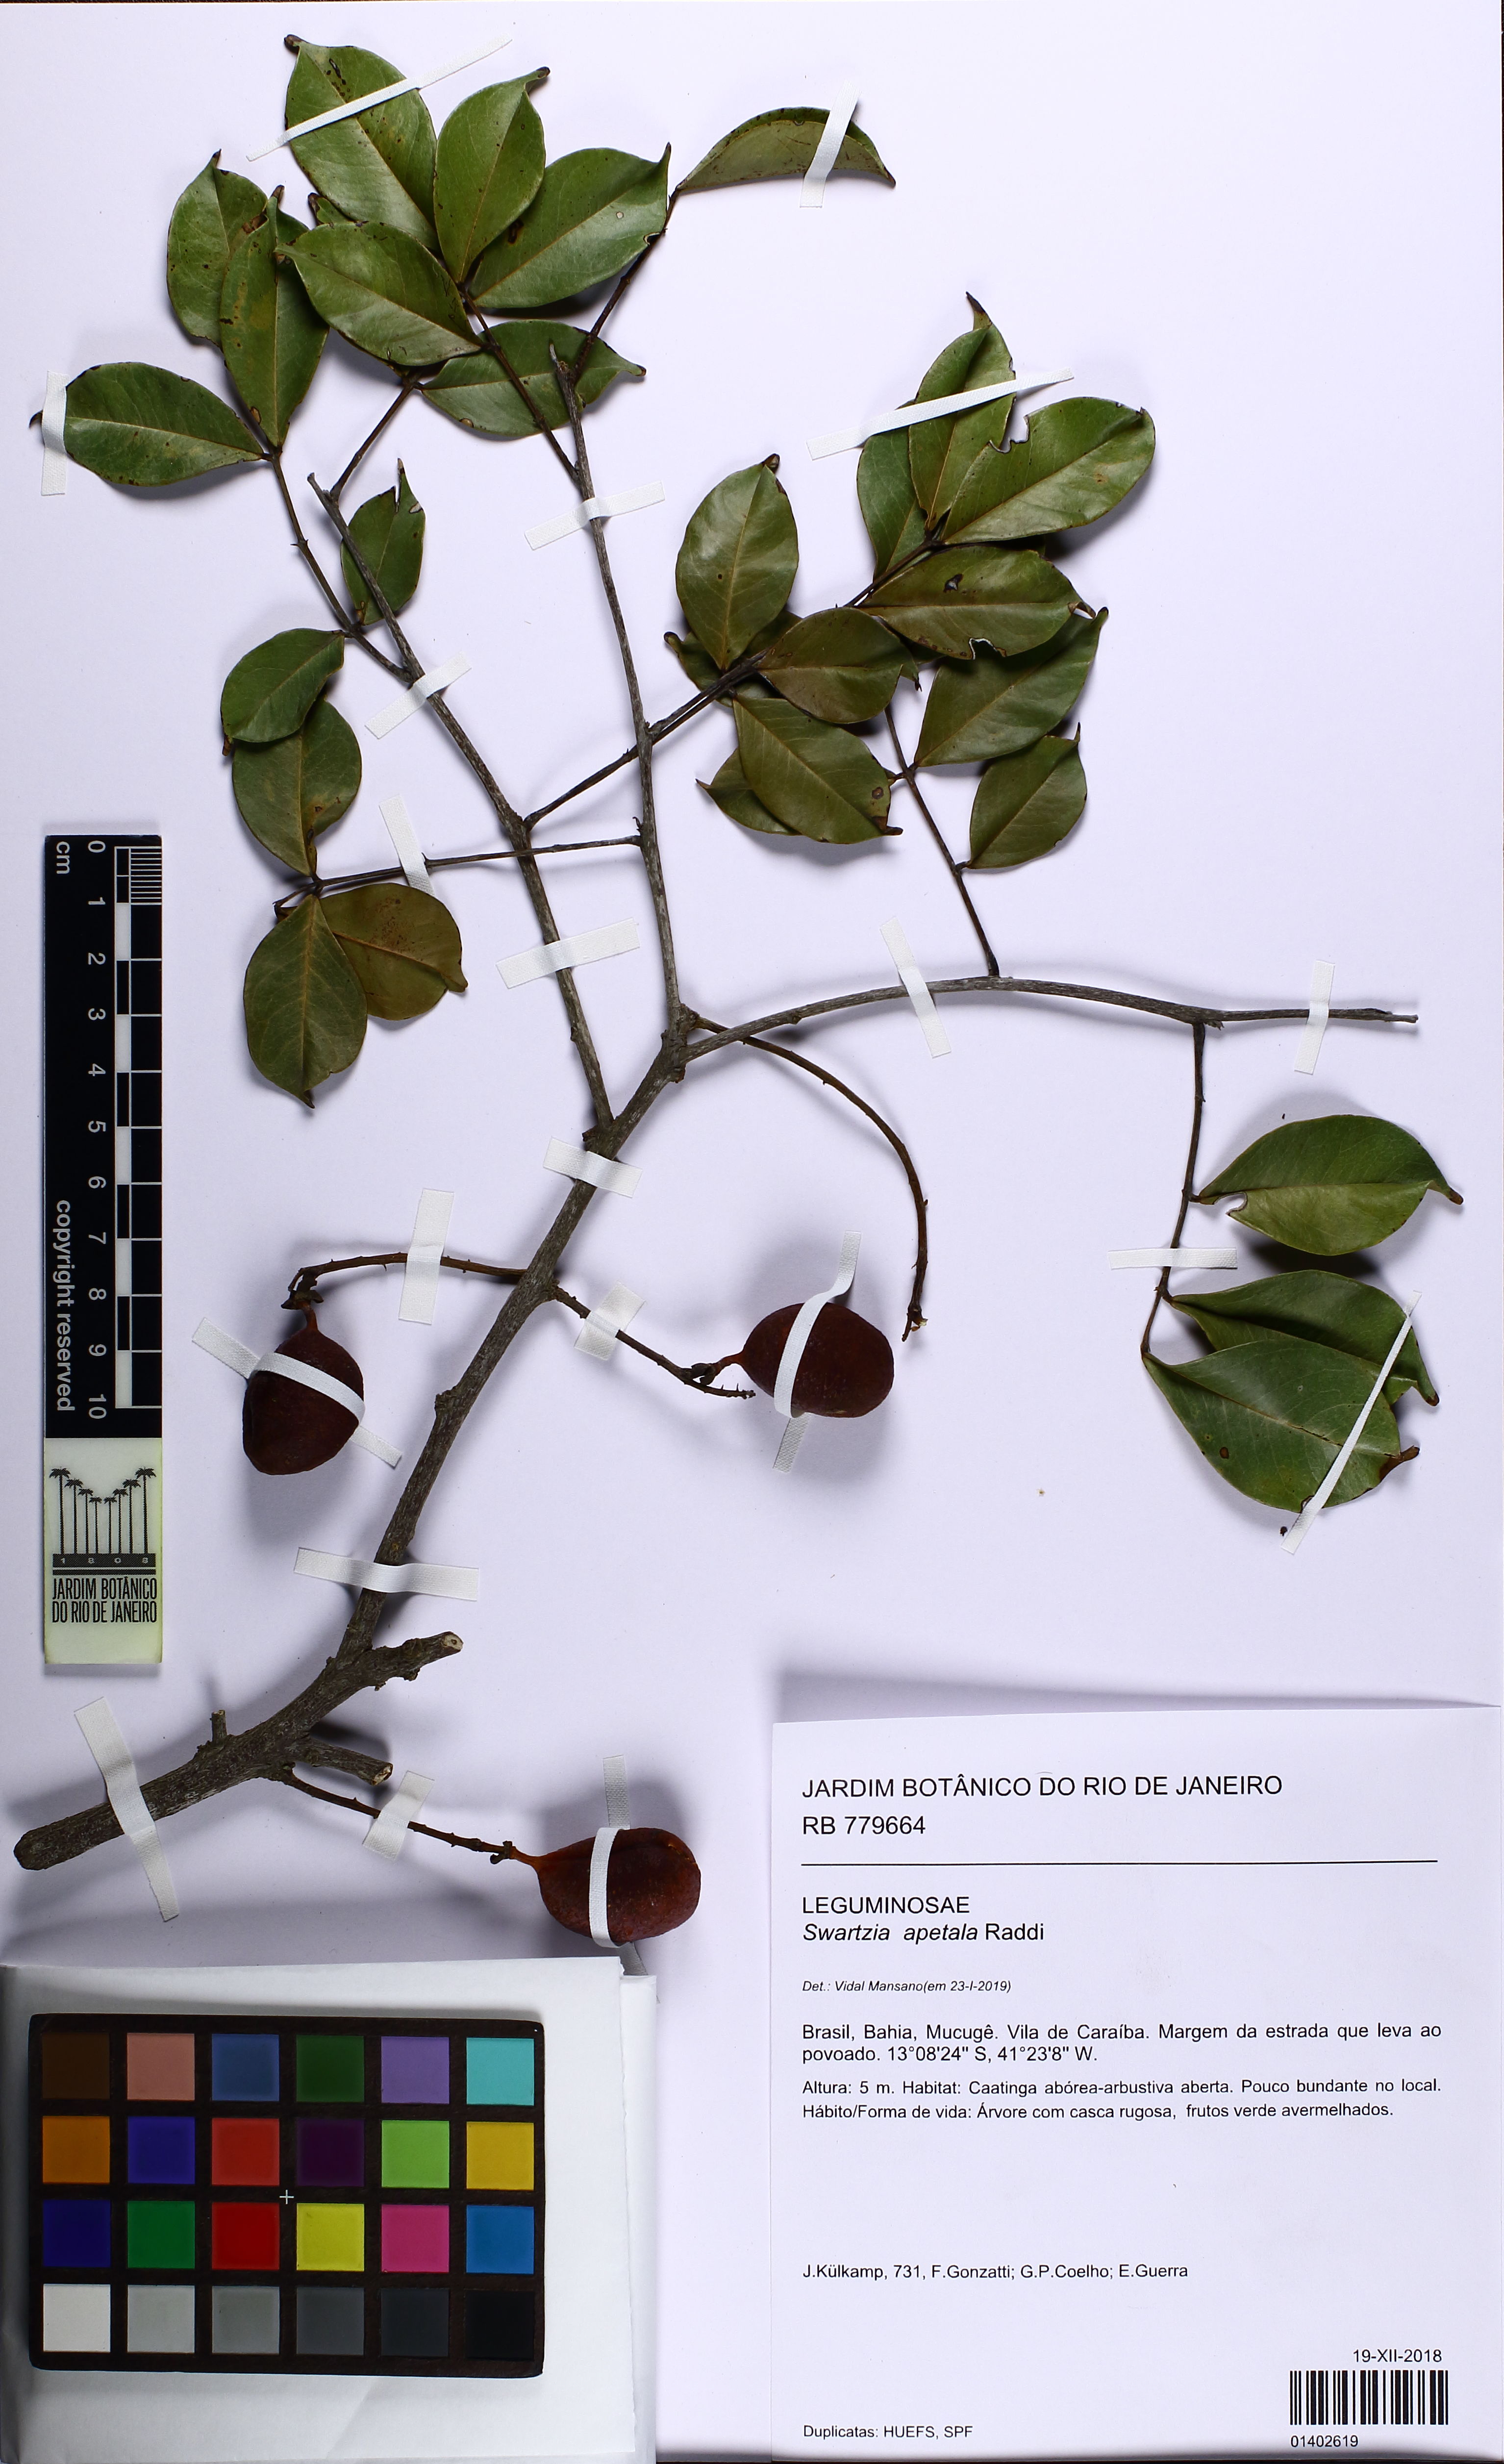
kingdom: Plantae
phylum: Tracheophyta
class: Magnoliopsida
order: Fabales
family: Fabaceae
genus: Swartzia
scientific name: Swartzia apetala
